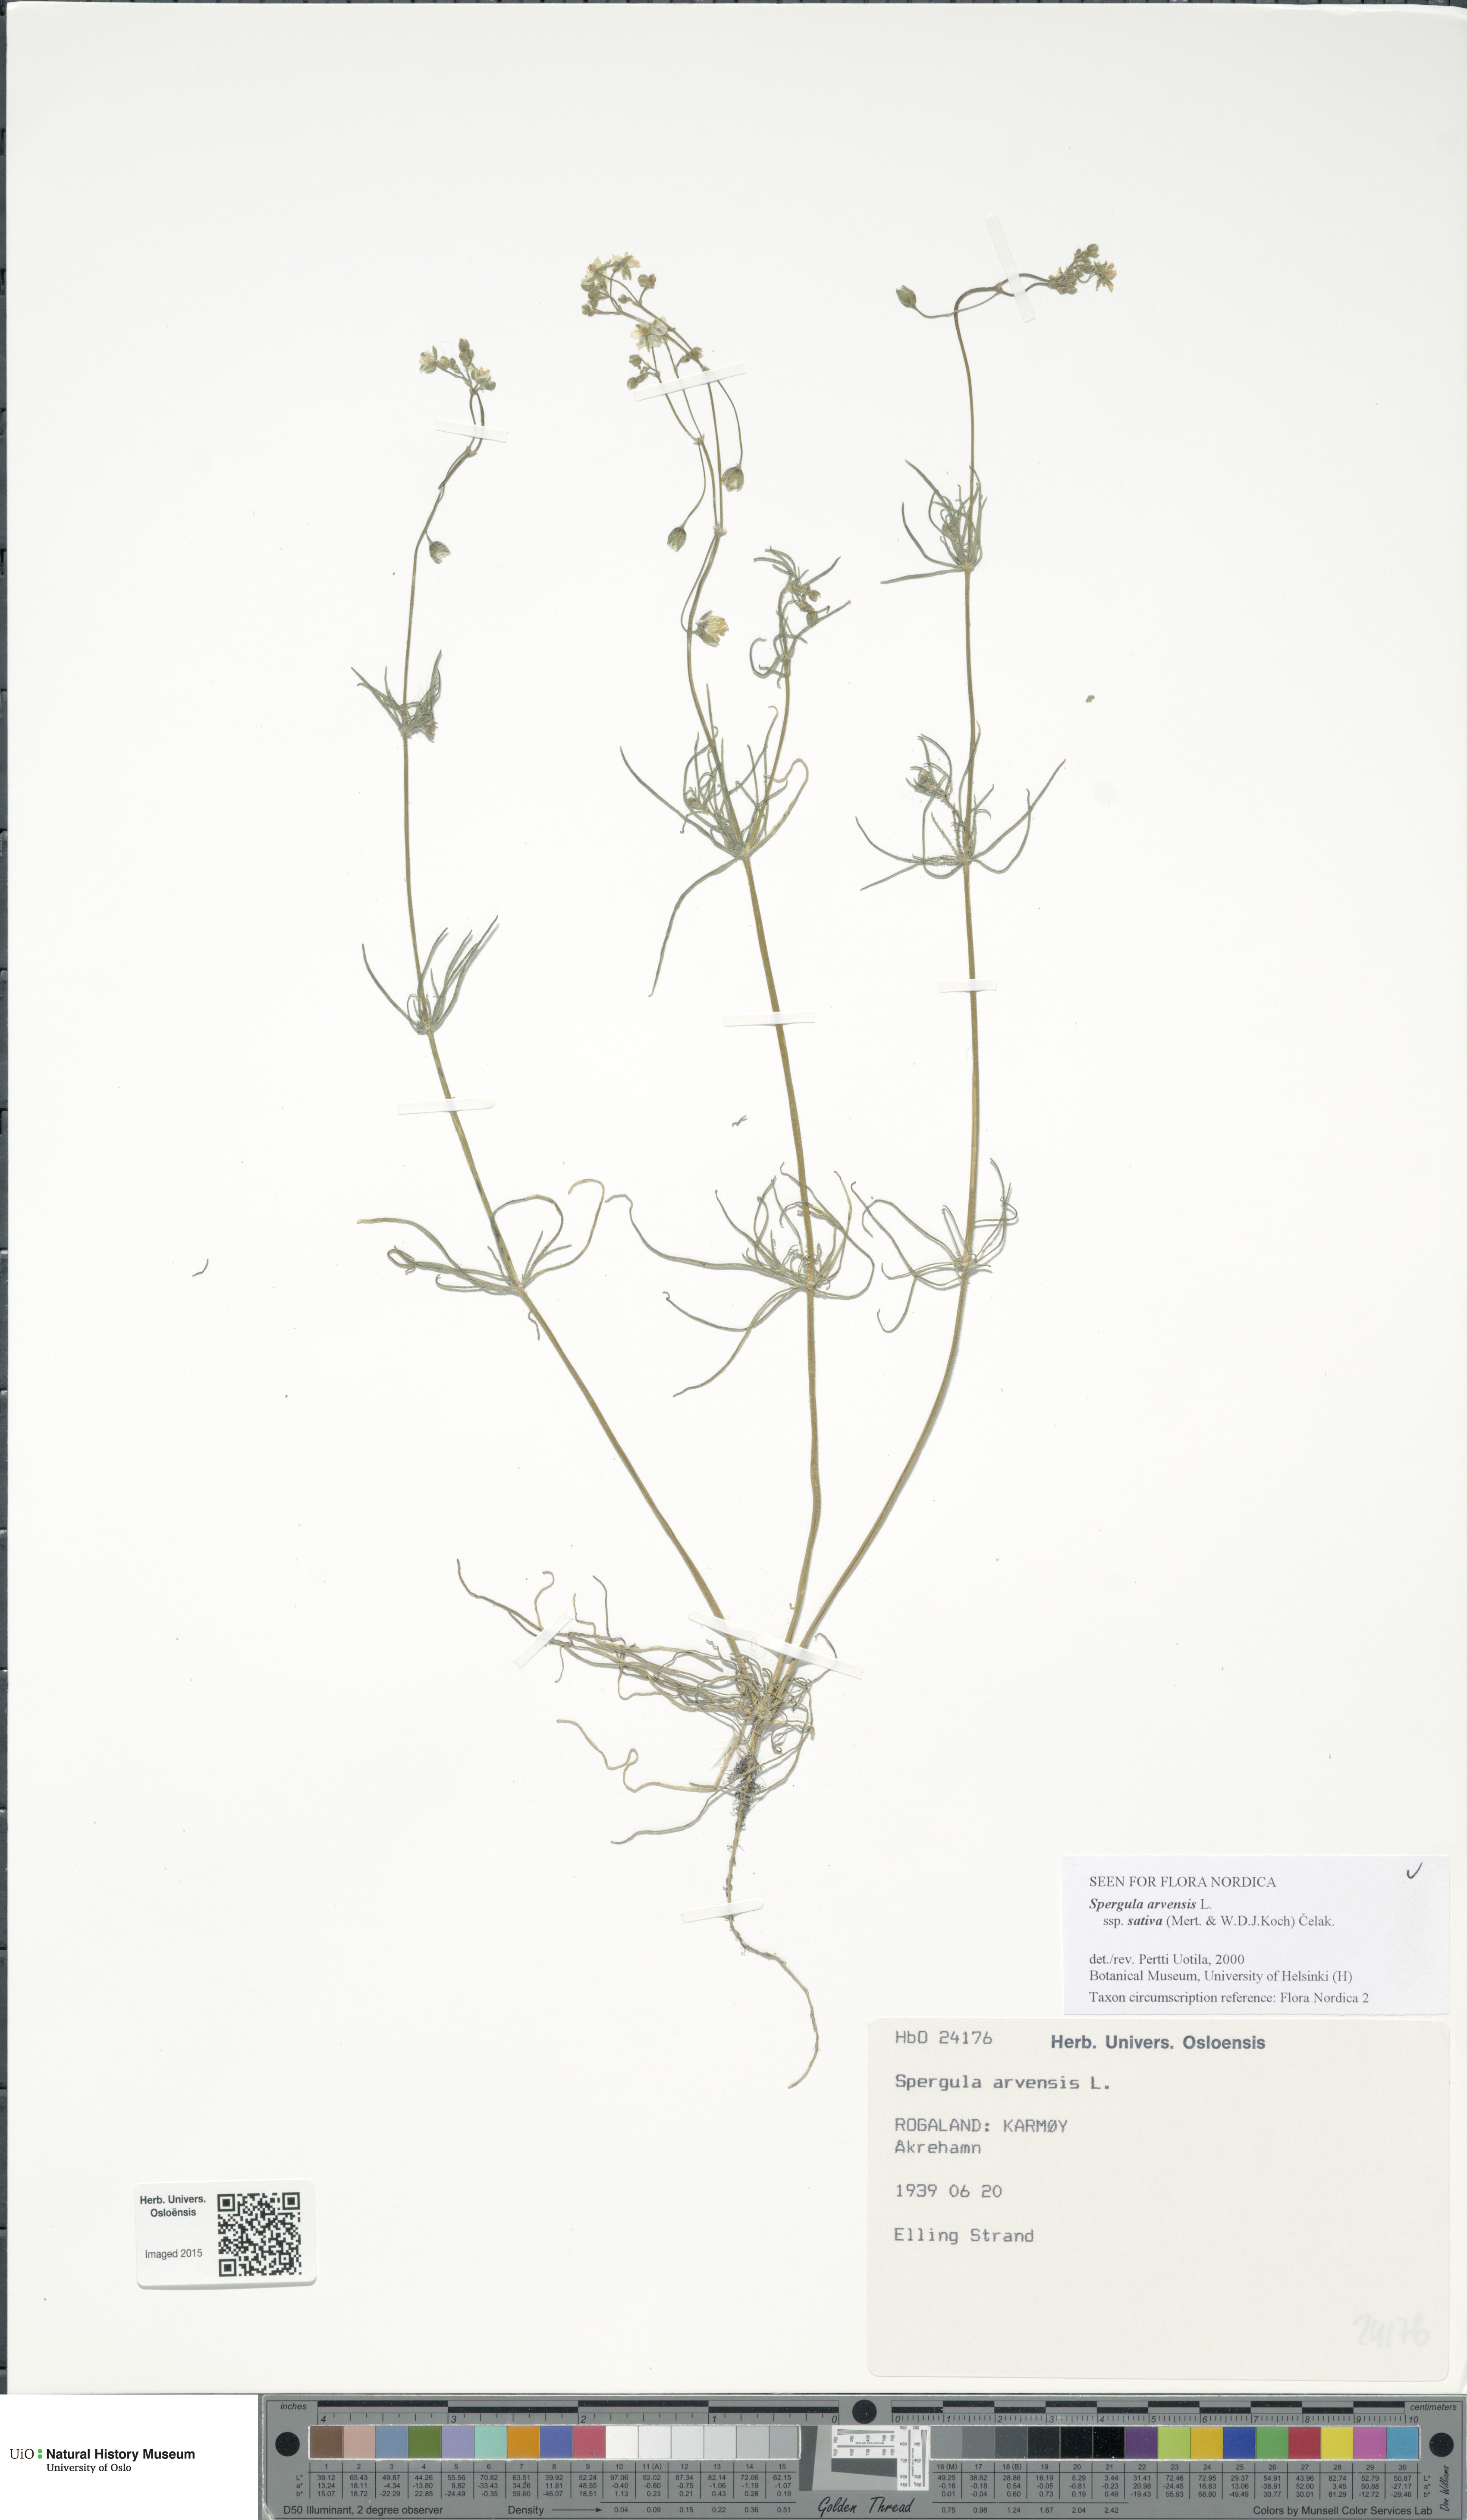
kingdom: Plantae
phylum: Tracheophyta
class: Magnoliopsida
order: Caryophyllales
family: Caryophyllaceae
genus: Spergula
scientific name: Spergula arvensis
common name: Corn spurrey
